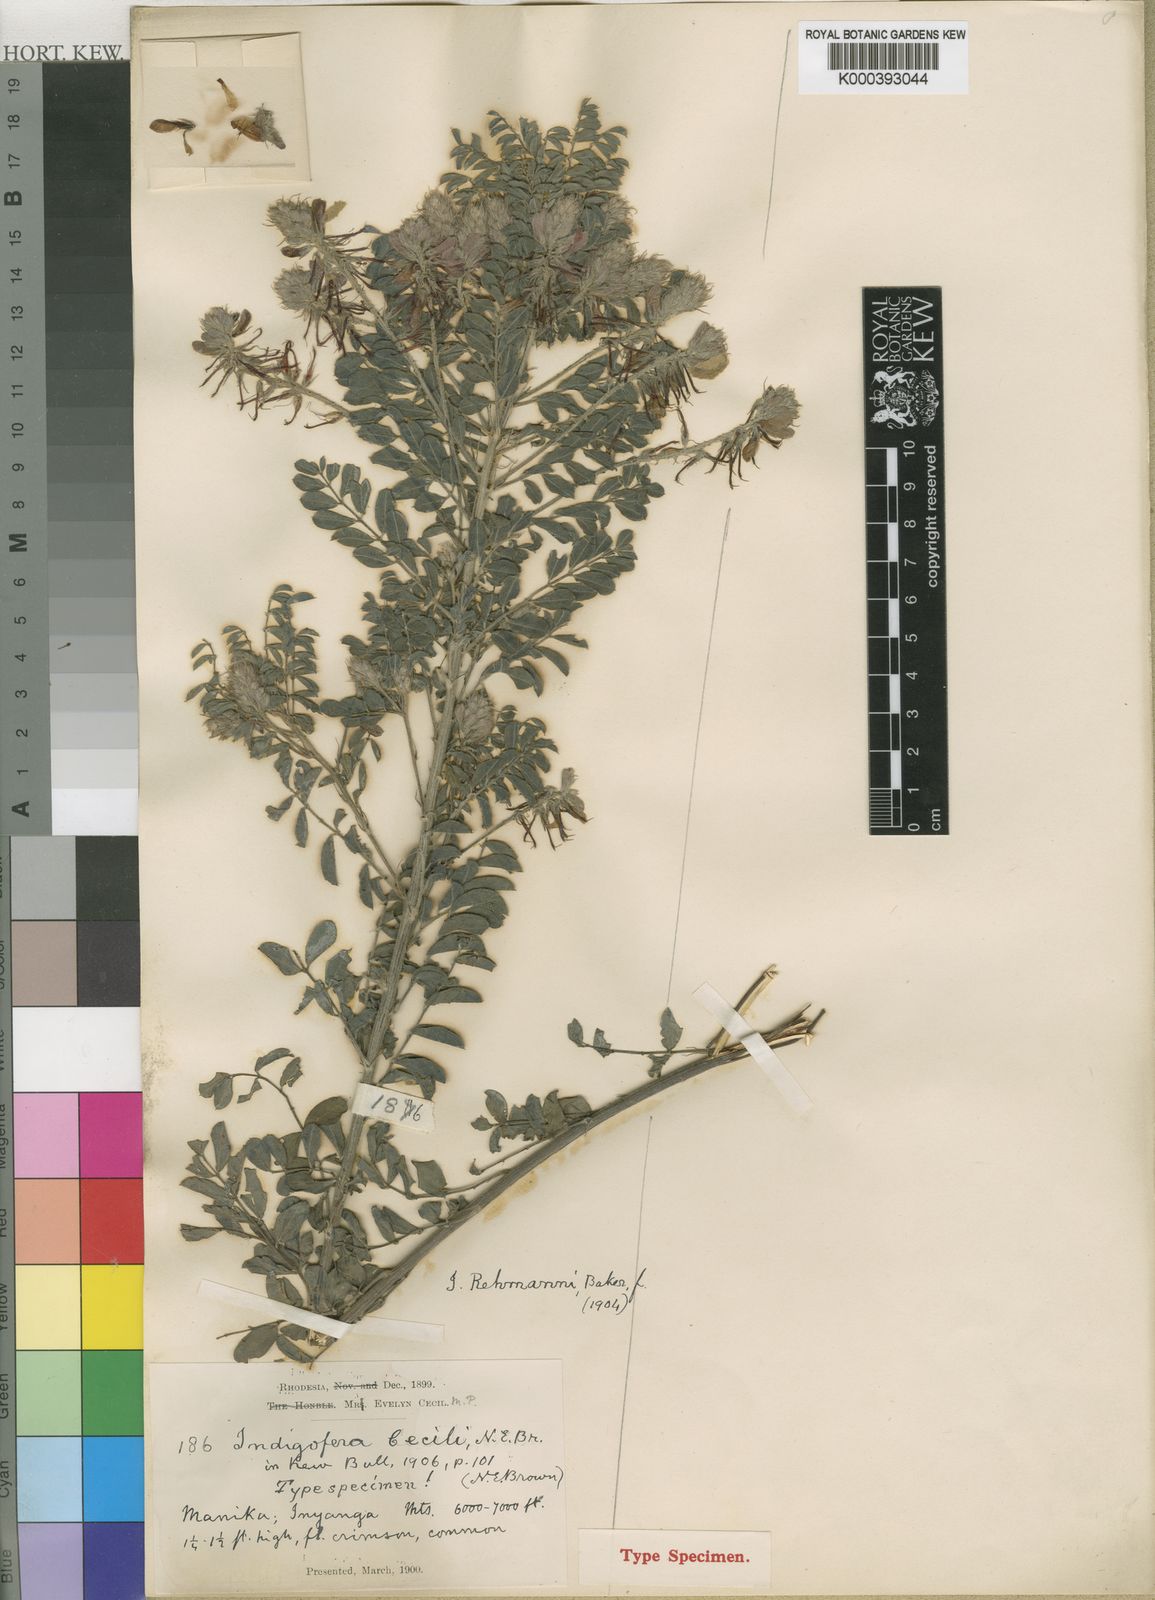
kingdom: Plantae
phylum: Tracheophyta
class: Magnoliopsida
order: Fabales
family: Fabaceae
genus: Indigofera
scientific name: Indigofera ceciliae
